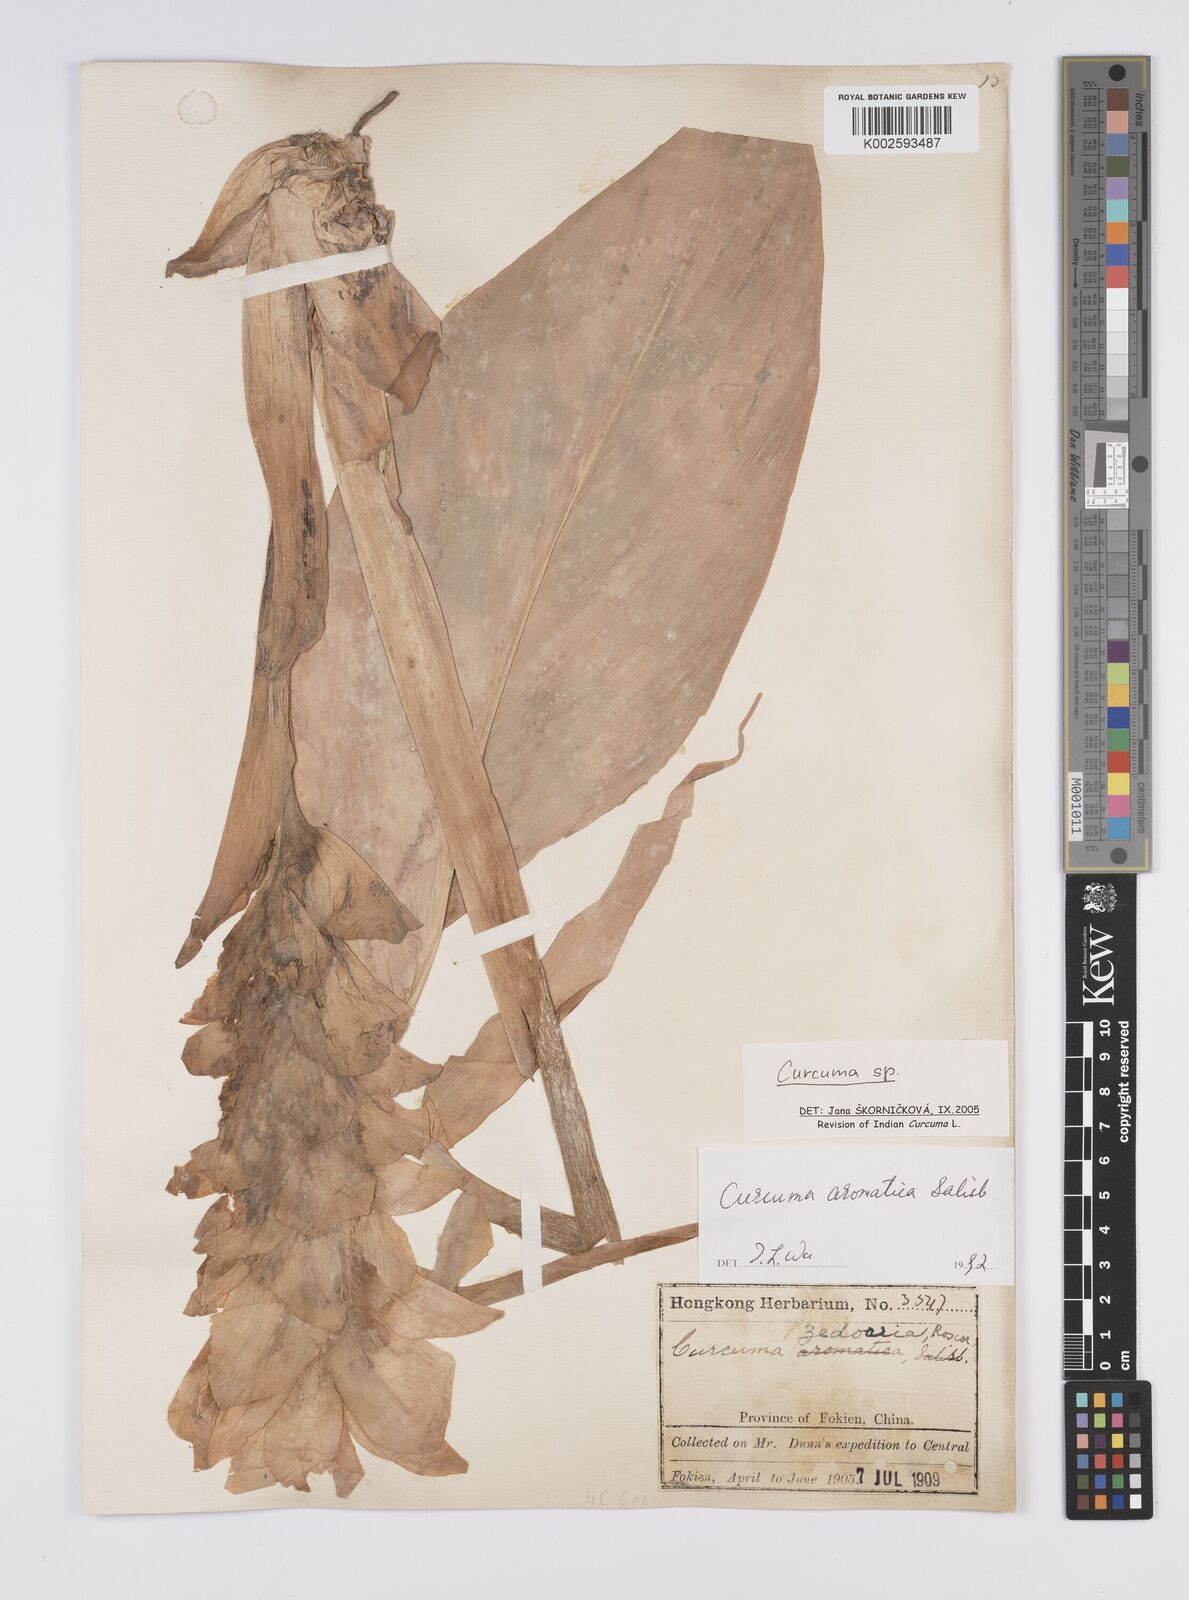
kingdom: Plantae
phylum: Tracheophyta
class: Liliopsida
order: Zingiberales
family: Zingiberaceae
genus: Curcuma
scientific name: Curcuma
